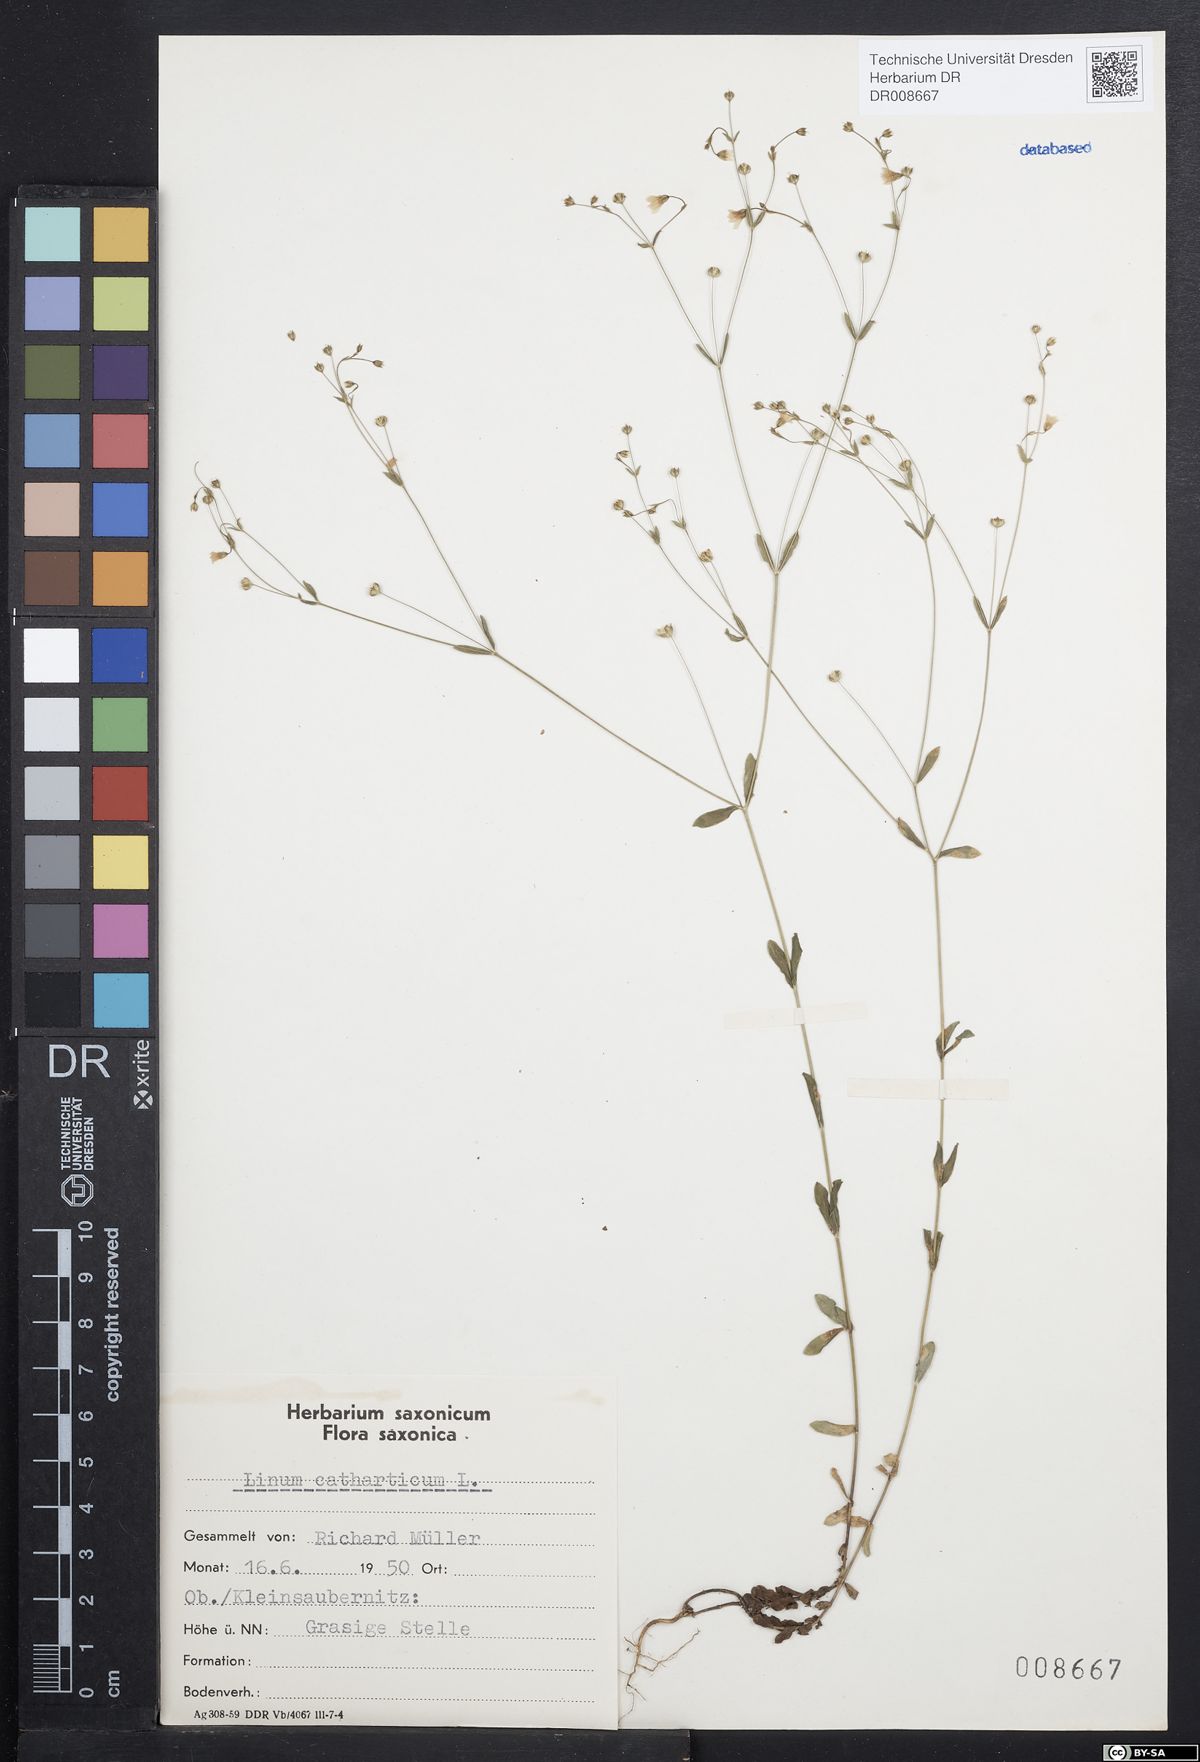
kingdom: Plantae
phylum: Tracheophyta
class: Magnoliopsida
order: Malpighiales
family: Linaceae
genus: Linum
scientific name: Linum catharticum
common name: Fairy flax
